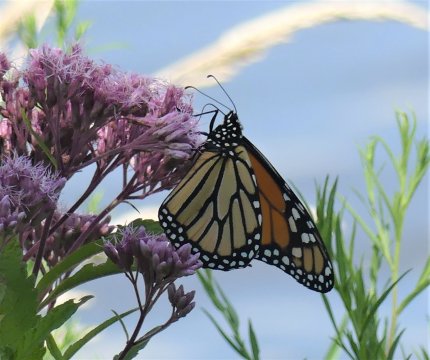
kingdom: Animalia
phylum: Arthropoda
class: Insecta
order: Lepidoptera
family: Nymphalidae
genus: Danaus
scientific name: Danaus plexippus
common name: Monarch
